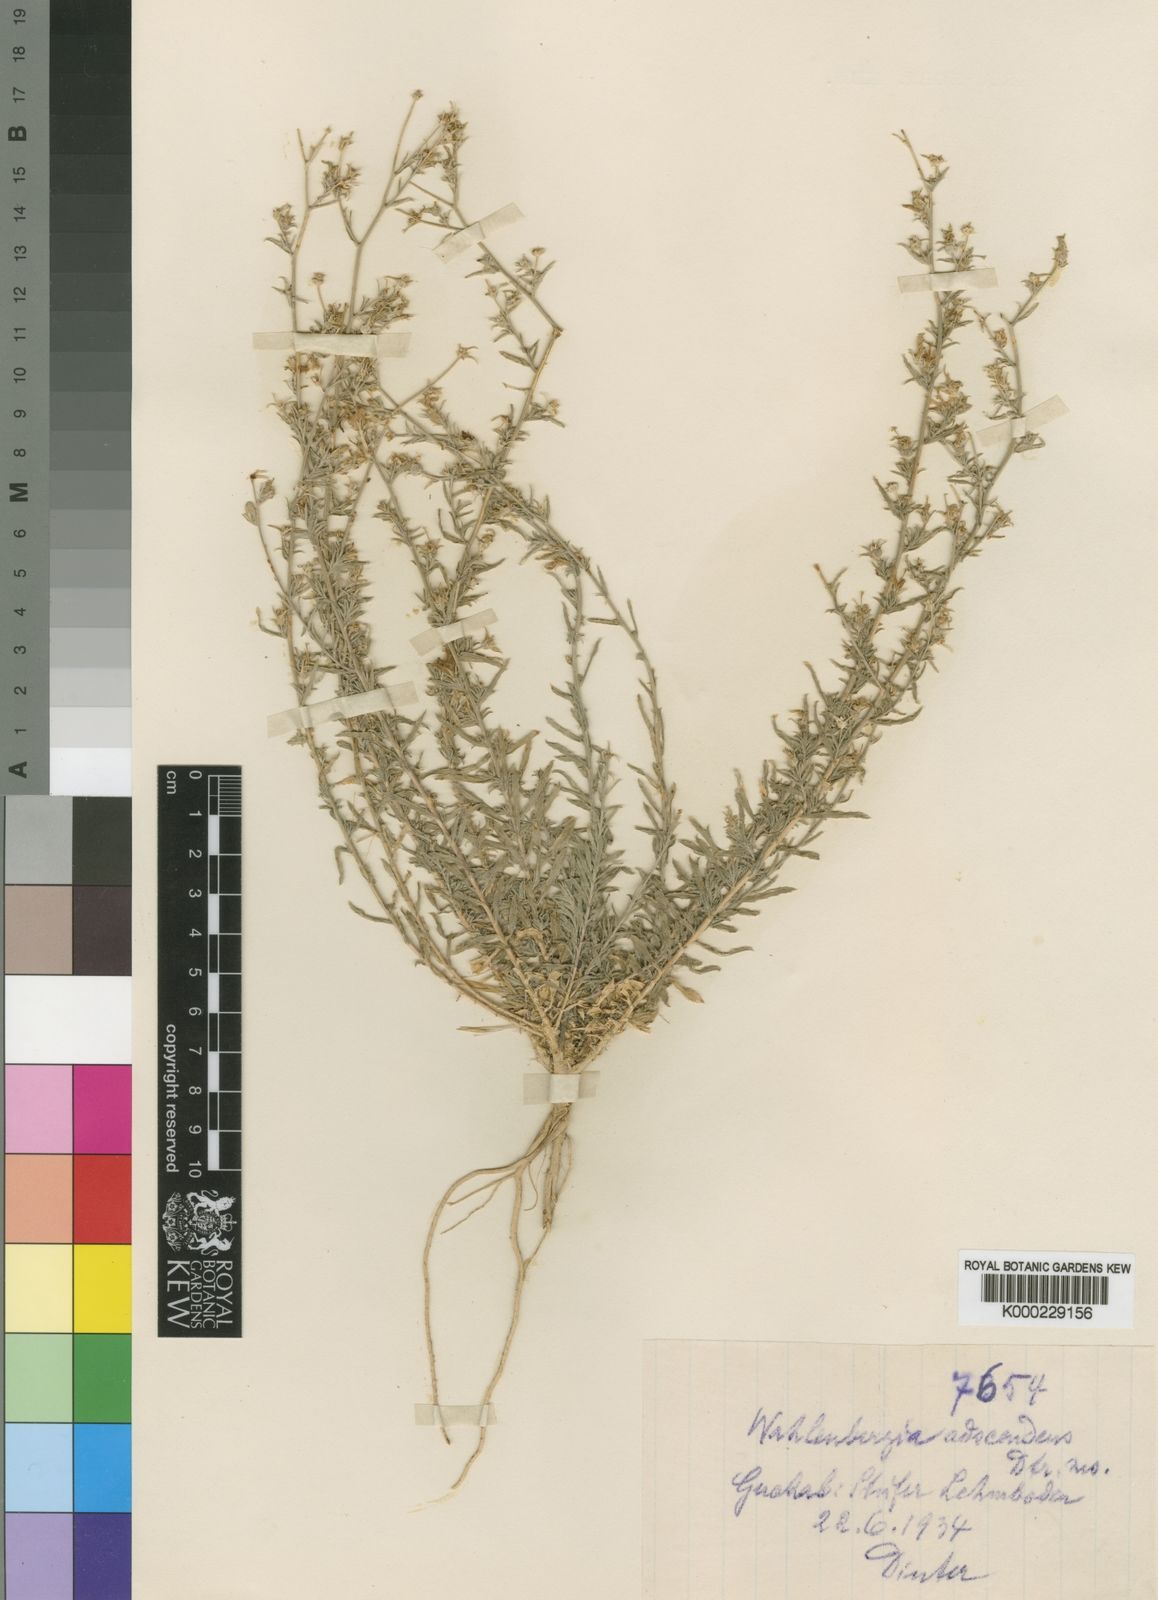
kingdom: Plantae
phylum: Tracheophyta
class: Magnoliopsida
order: Asterales
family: Campanulaceae
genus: Wahlenbergia
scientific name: Wahlenbergia
